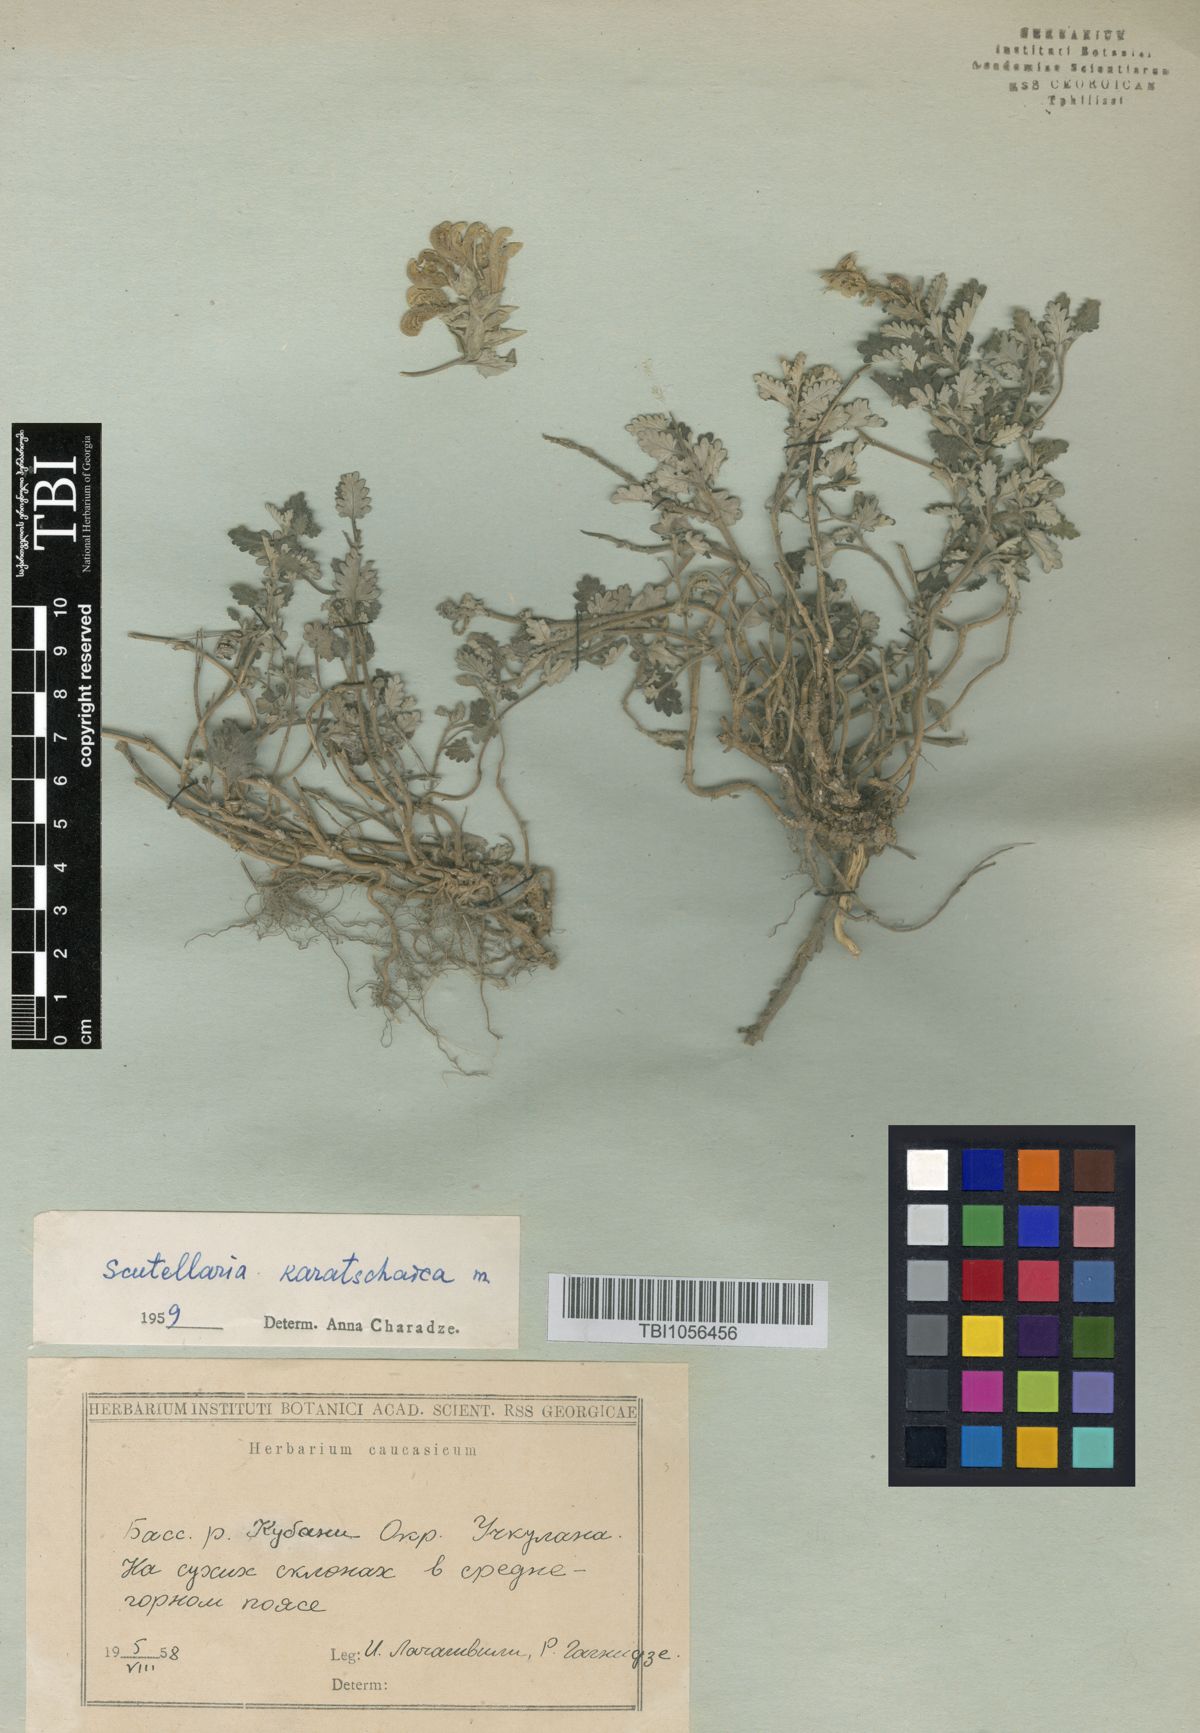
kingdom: Plantae
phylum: Tracheophyta
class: Magnoliopsida
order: Lamiales
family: Lamiaceae
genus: Scutellaria
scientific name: Scutellaria orientalis
